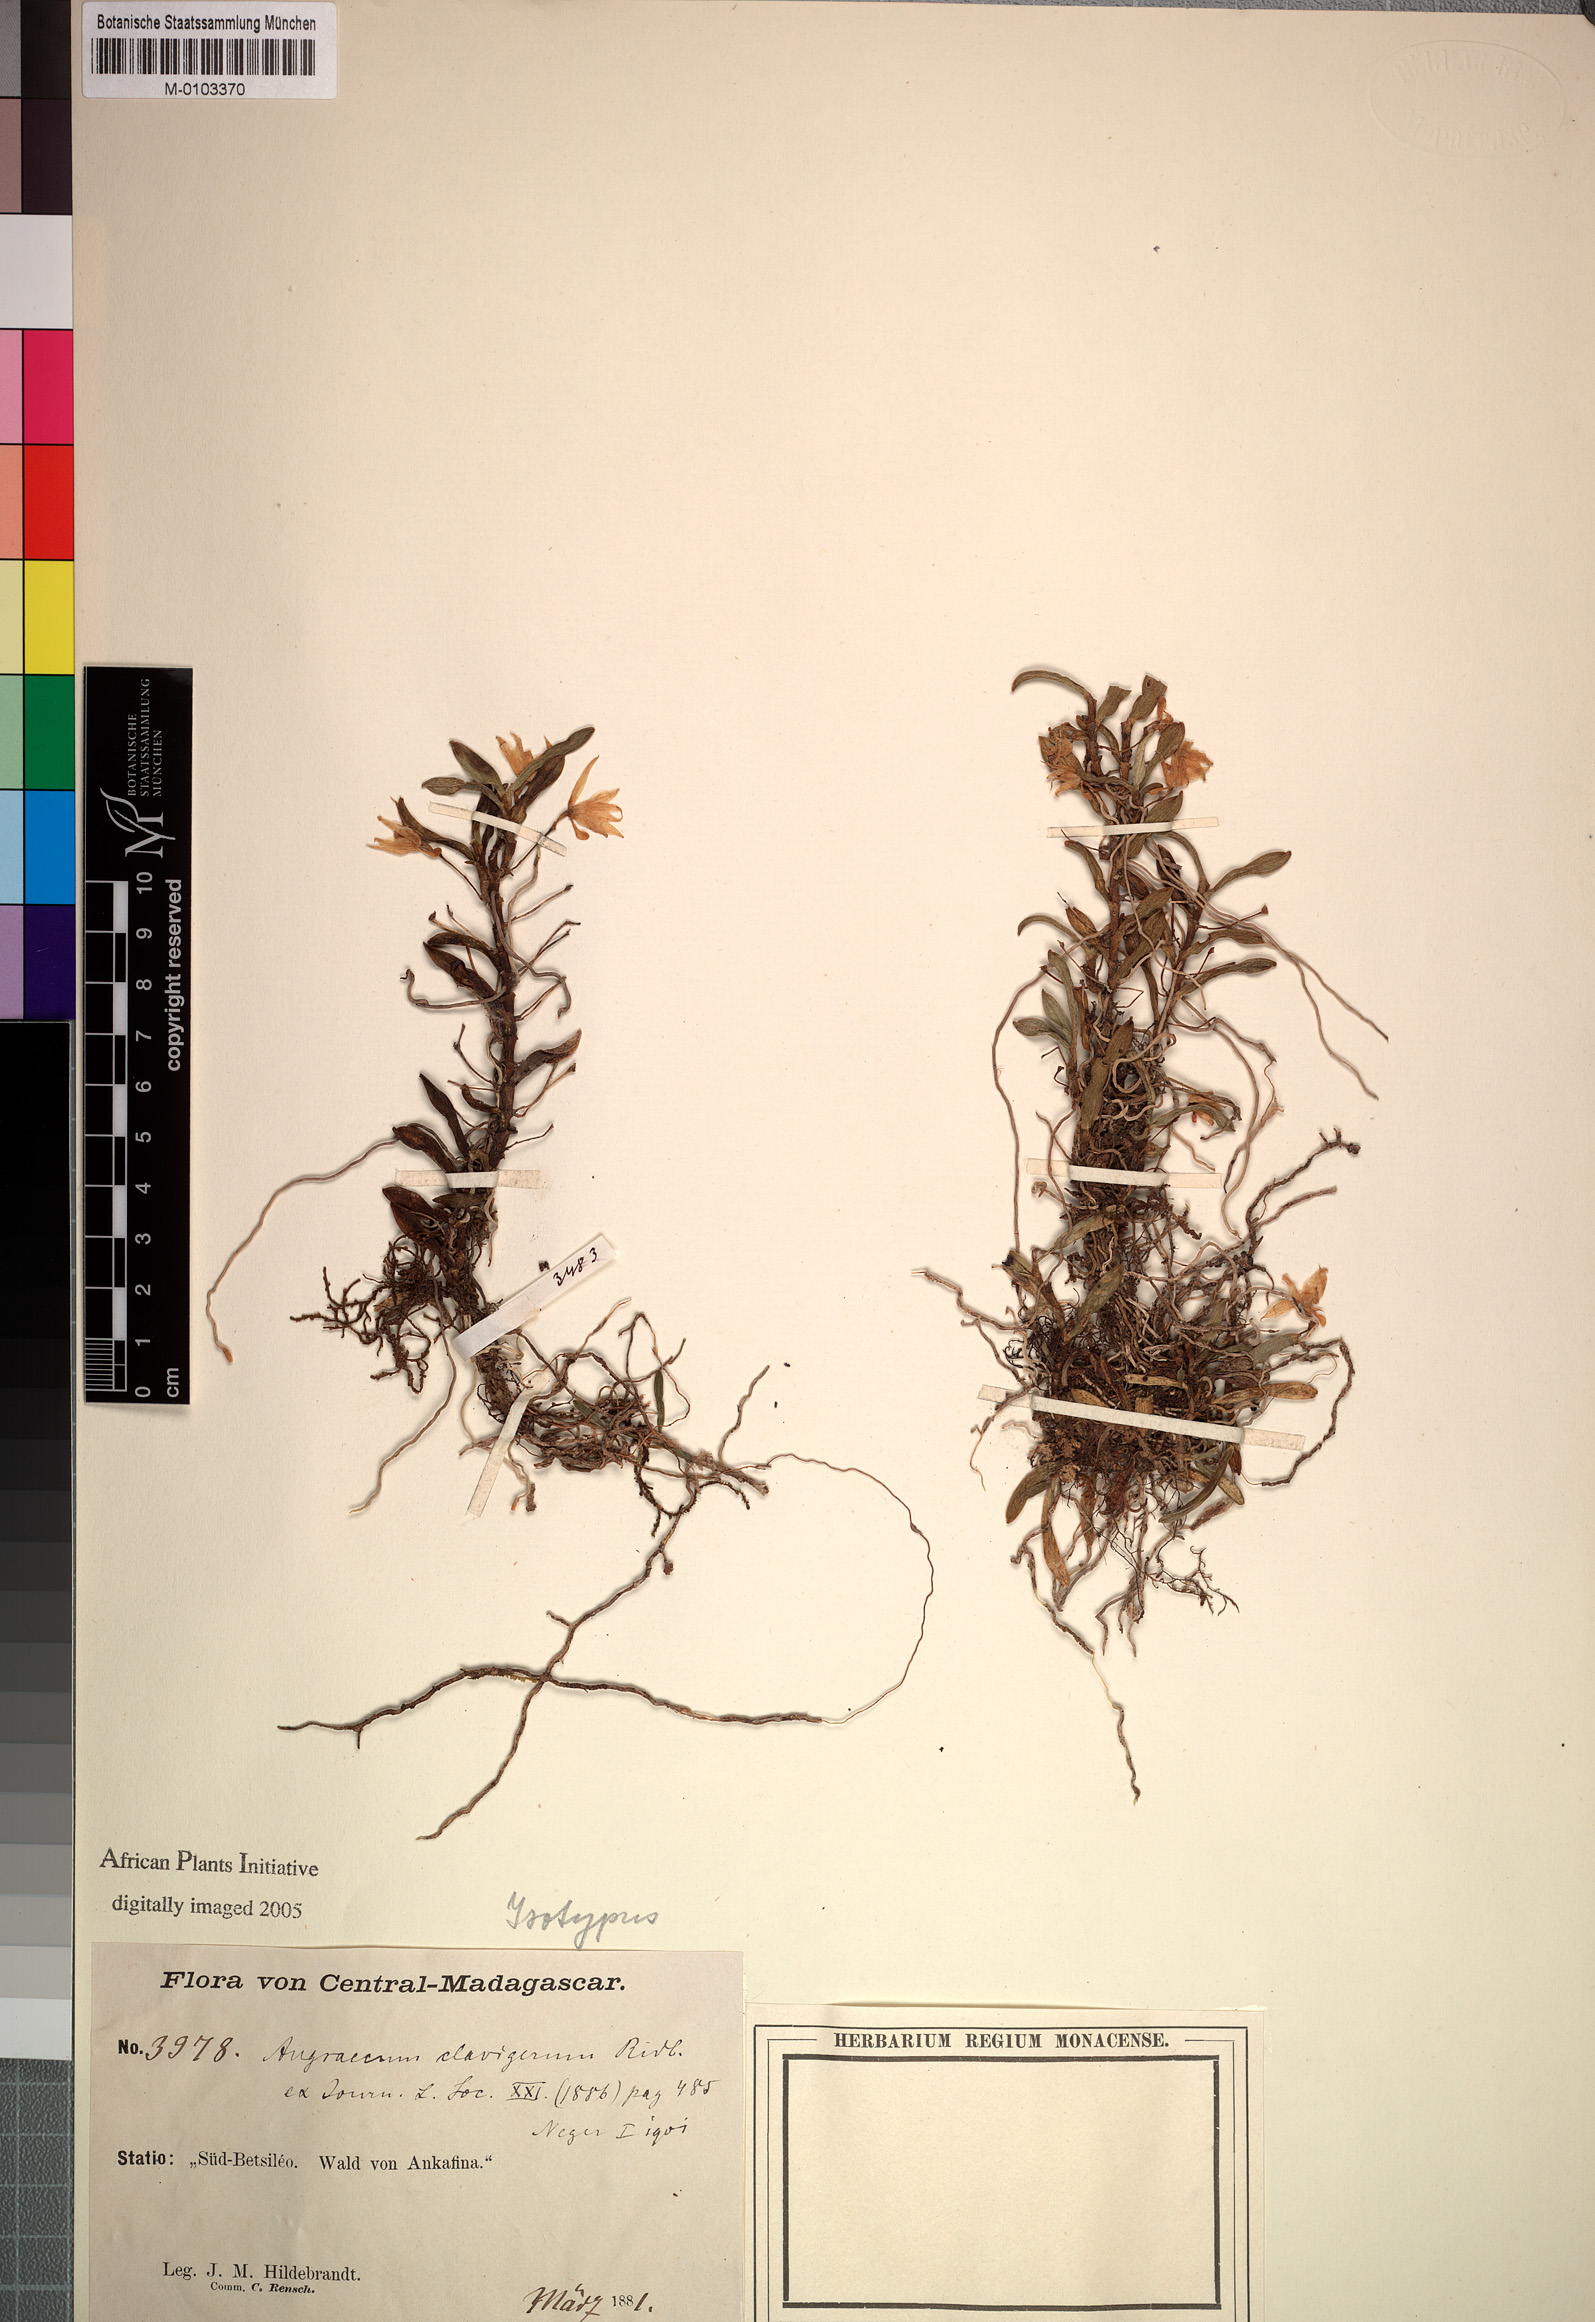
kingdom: Plantae
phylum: Tracheophyta
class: Liliopsida
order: Asparagales
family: Orchidaceae
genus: Angraecum
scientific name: Angraecum clavigerum
